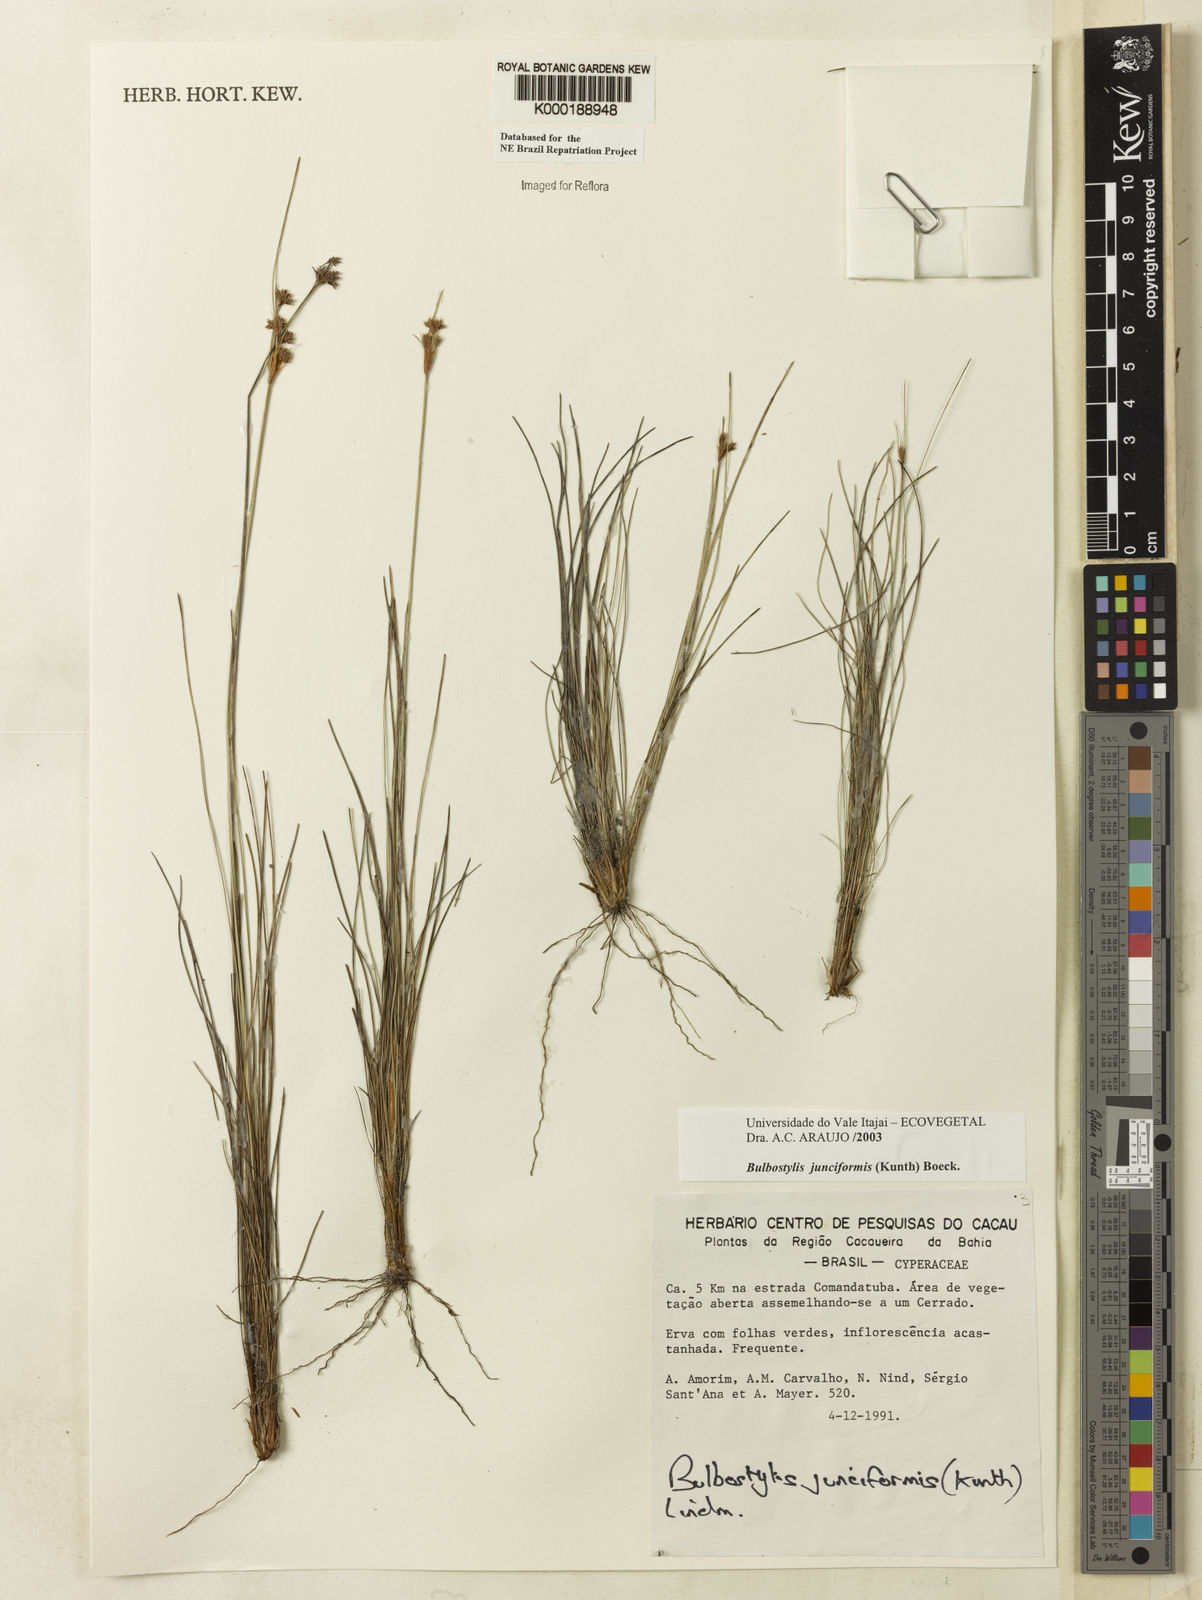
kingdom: Plantae
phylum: Tracheophyta
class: Liliopsida
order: Poales
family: Cyperaceae
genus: Bulbostylis
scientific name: Bulbostylis
